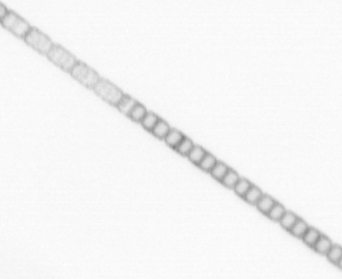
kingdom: Chromista
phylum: Ochrophyta
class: Bacillariophyceae
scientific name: Bacillariophyceae
